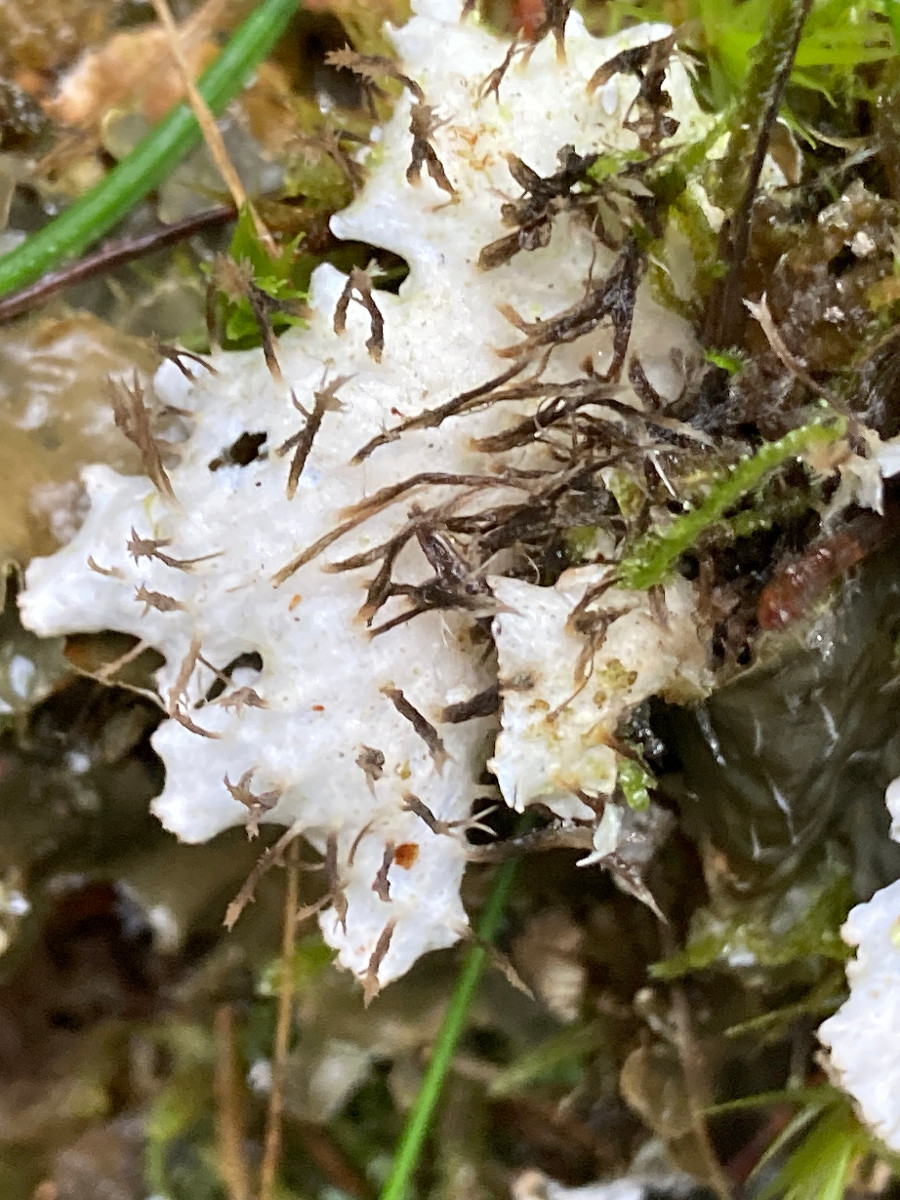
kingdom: Fungi
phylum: Ascomycota
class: Lecanoromycetes
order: Peltigerales
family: Peltigeraceae
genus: Peltigera
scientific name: Peltigera hymenina
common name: hinde-skjoldlav
